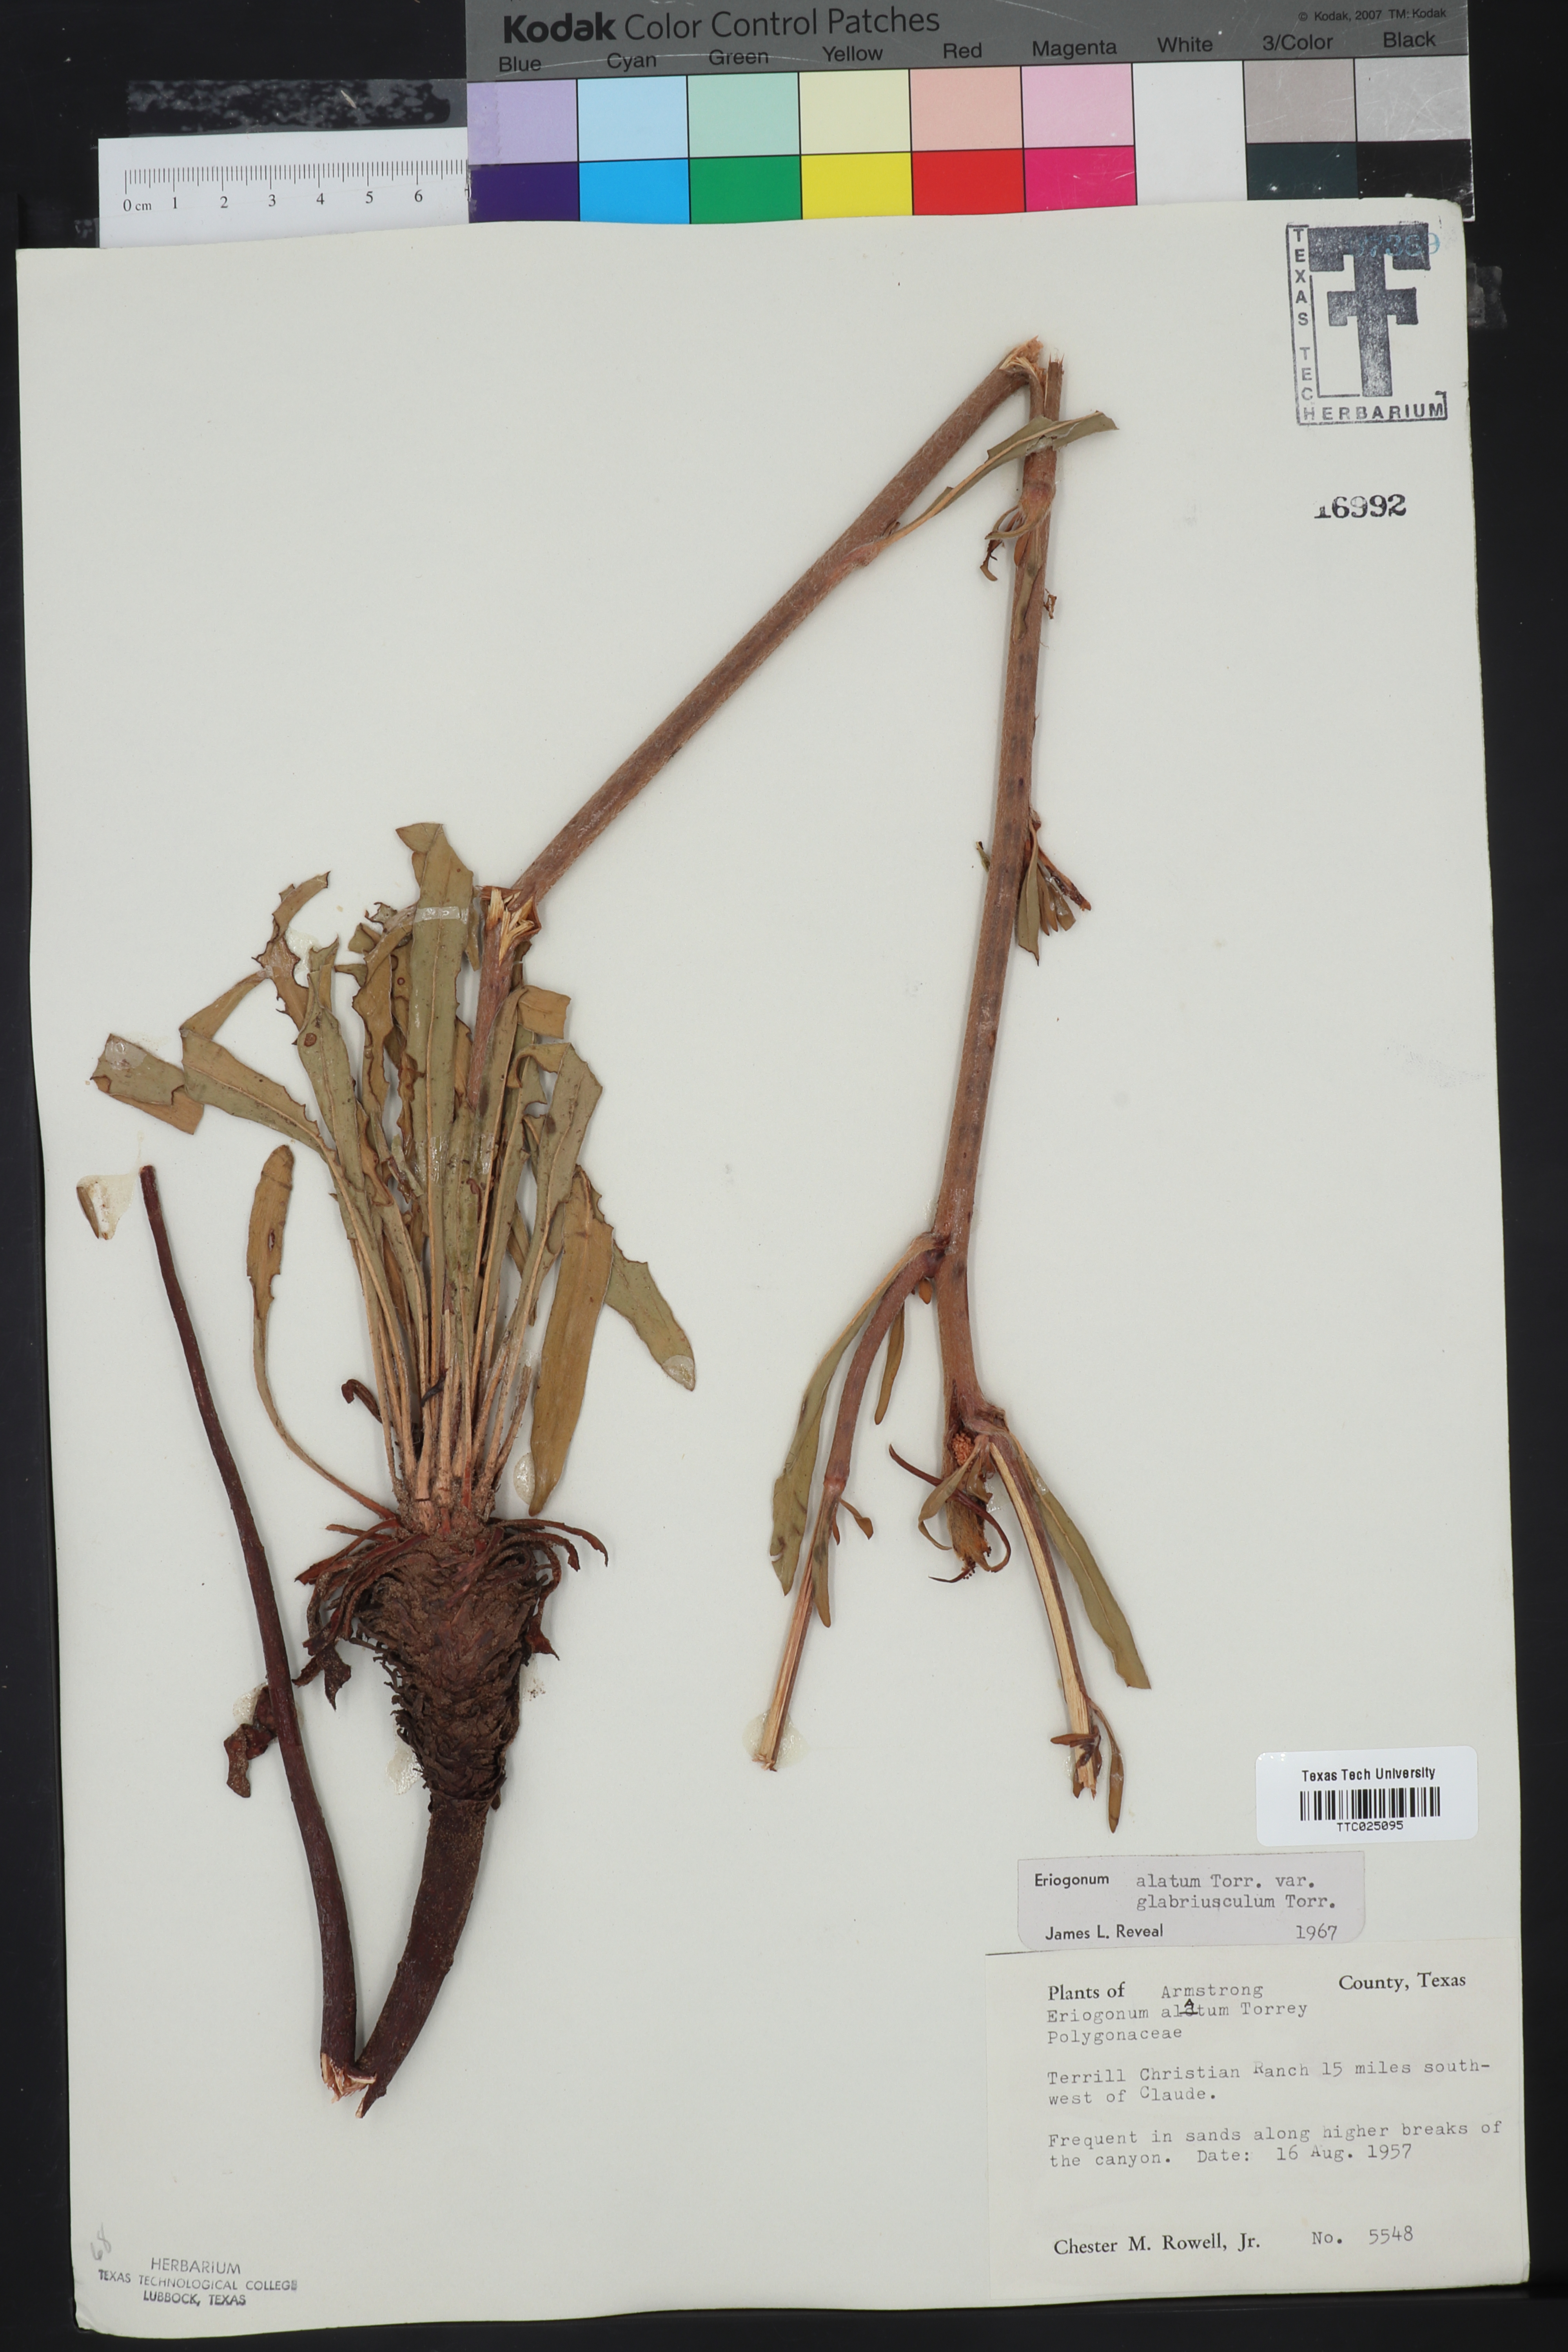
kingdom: Plantae
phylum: Tracheophyta
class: Magnoliopsida
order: Caryophyllales
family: Polygonaceae
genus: Eriogonum
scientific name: Eriogonum alatum
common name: Winged eriogonum
